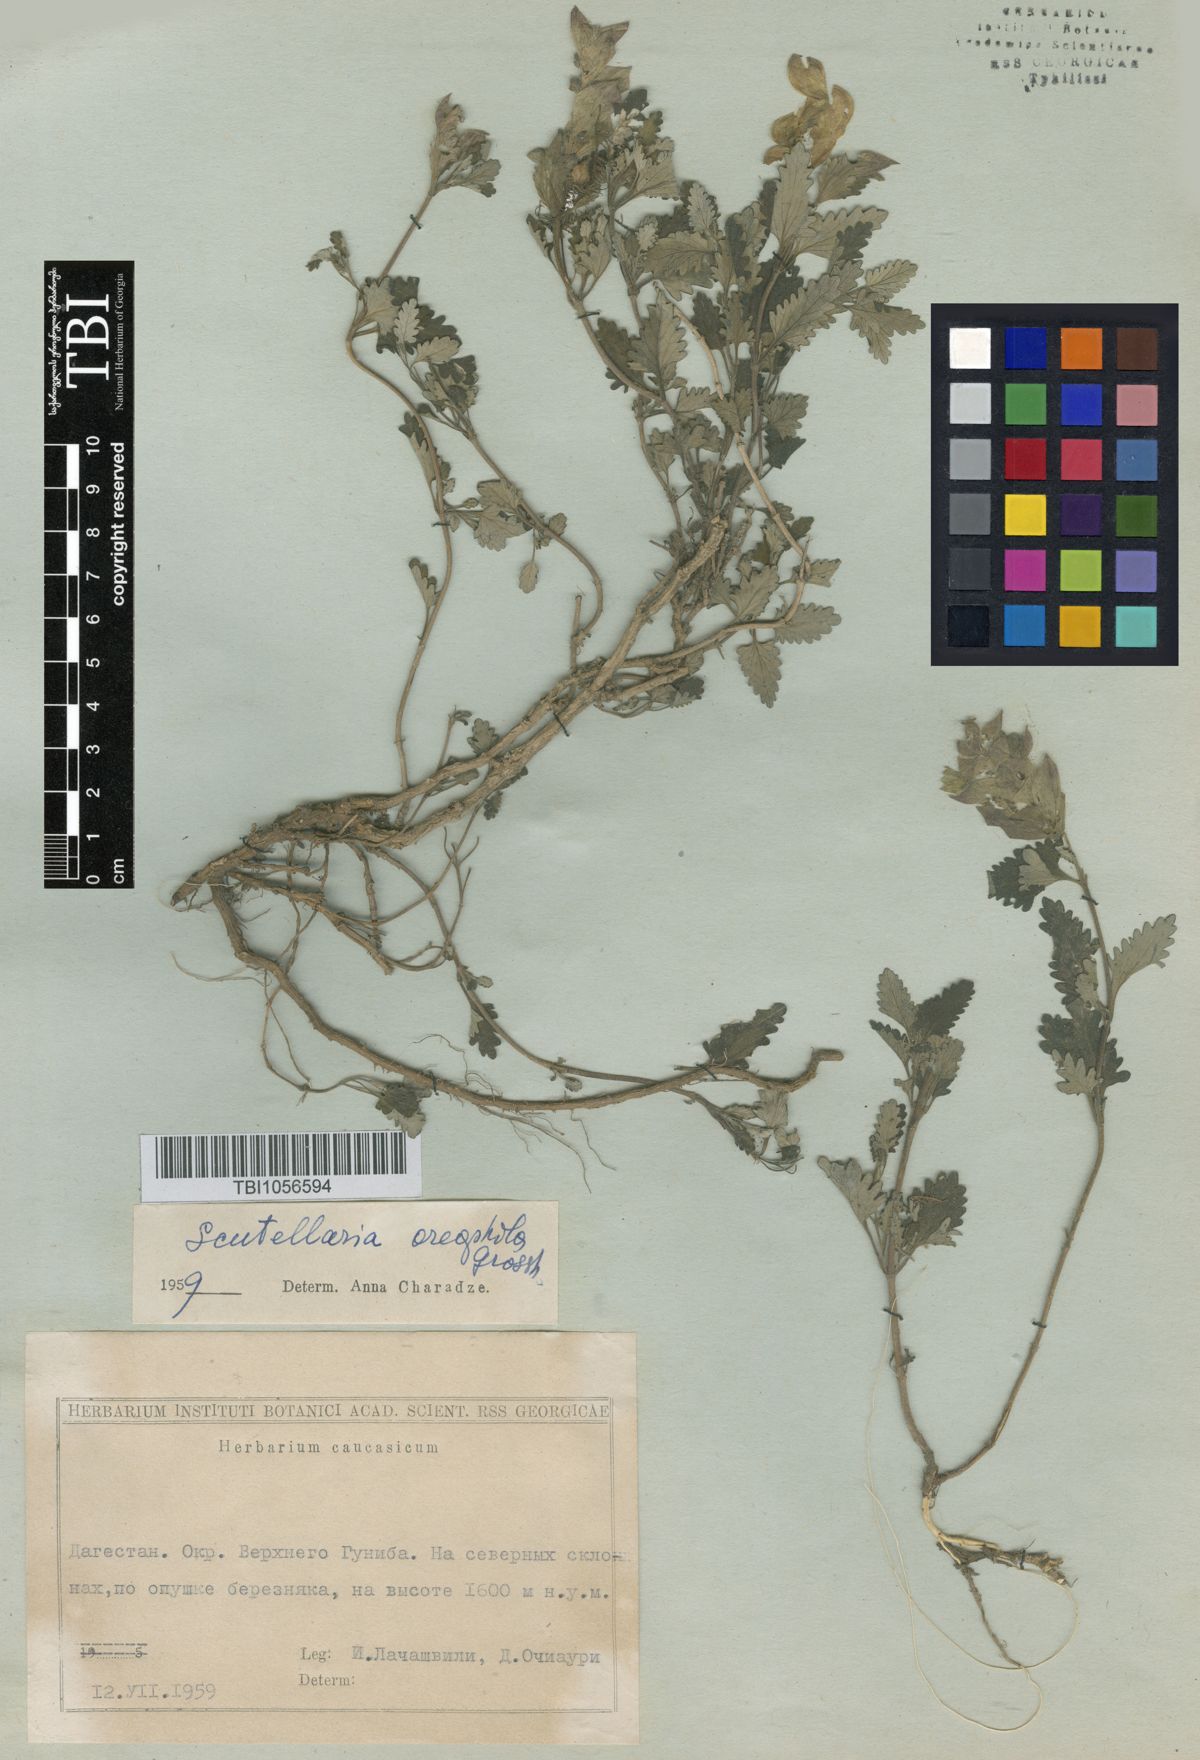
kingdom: Plantae
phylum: Tracheophyta
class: Magnoliopsida
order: Lamiales
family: Lamiaceae
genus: Scutellaria
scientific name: Scutellaria oreophila
